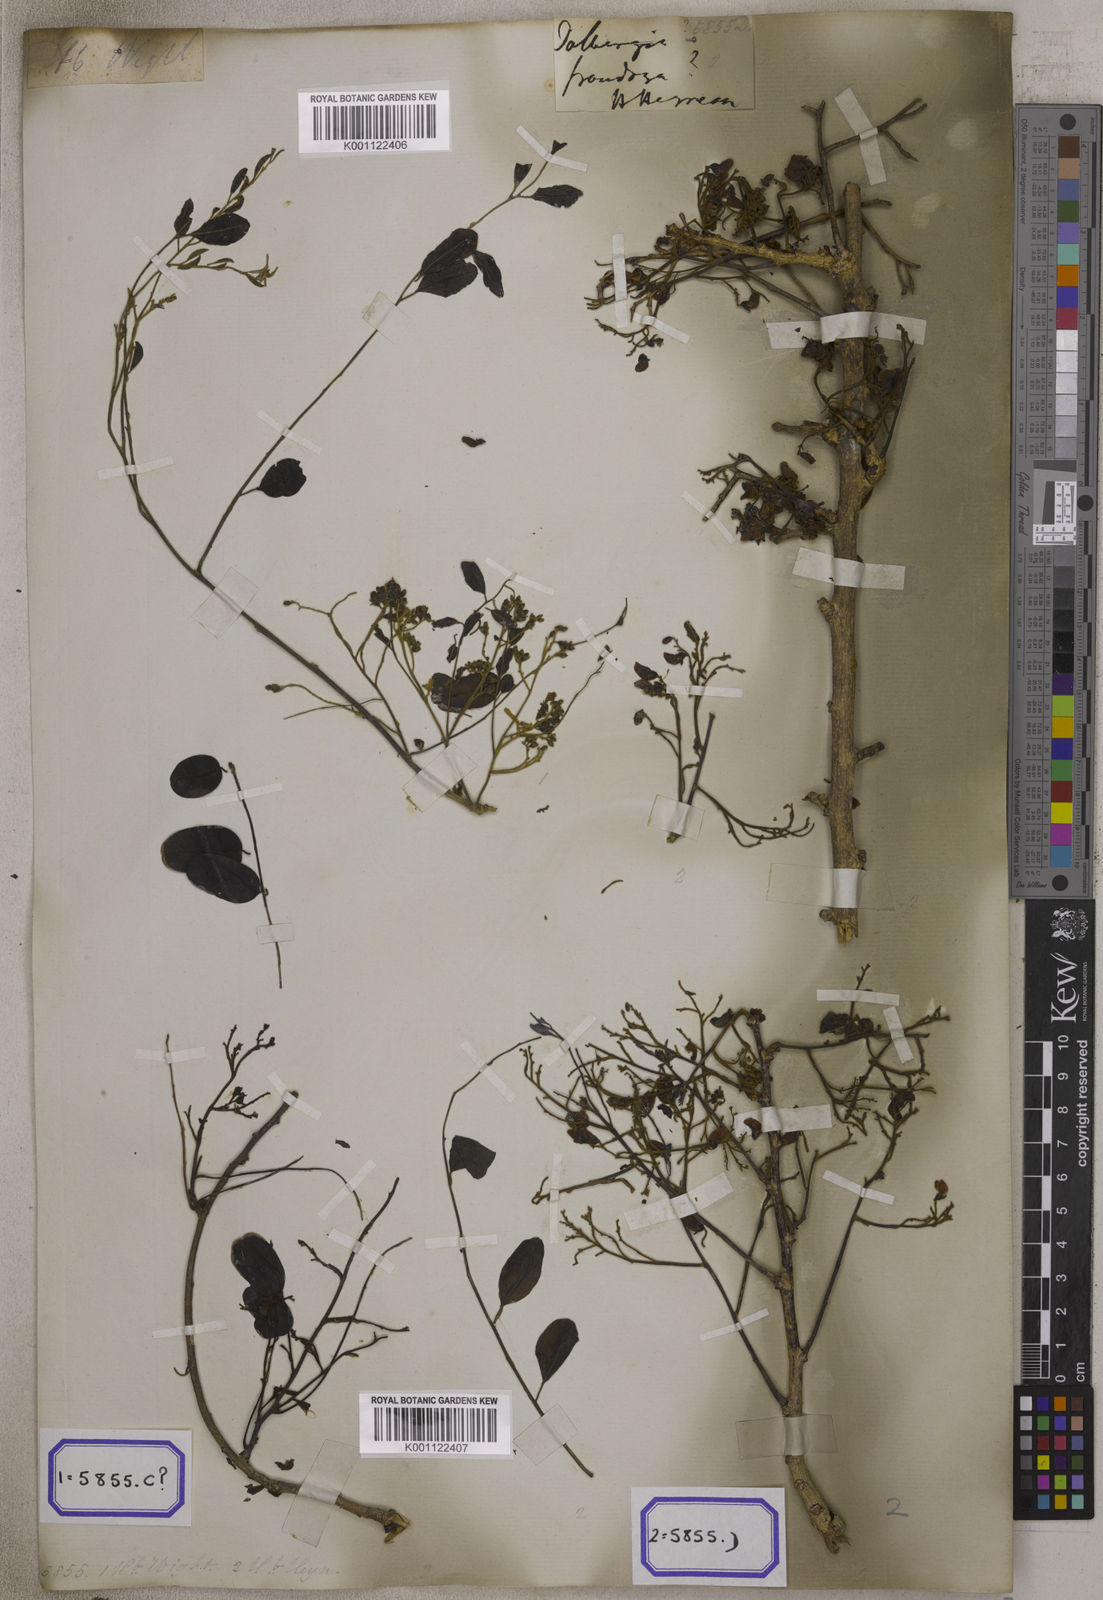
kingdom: Plantae
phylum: Tracheophyta
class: Magnoliopsida
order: Fabales
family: Fabaceae
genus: Dalbergia
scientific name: Dalbergia
